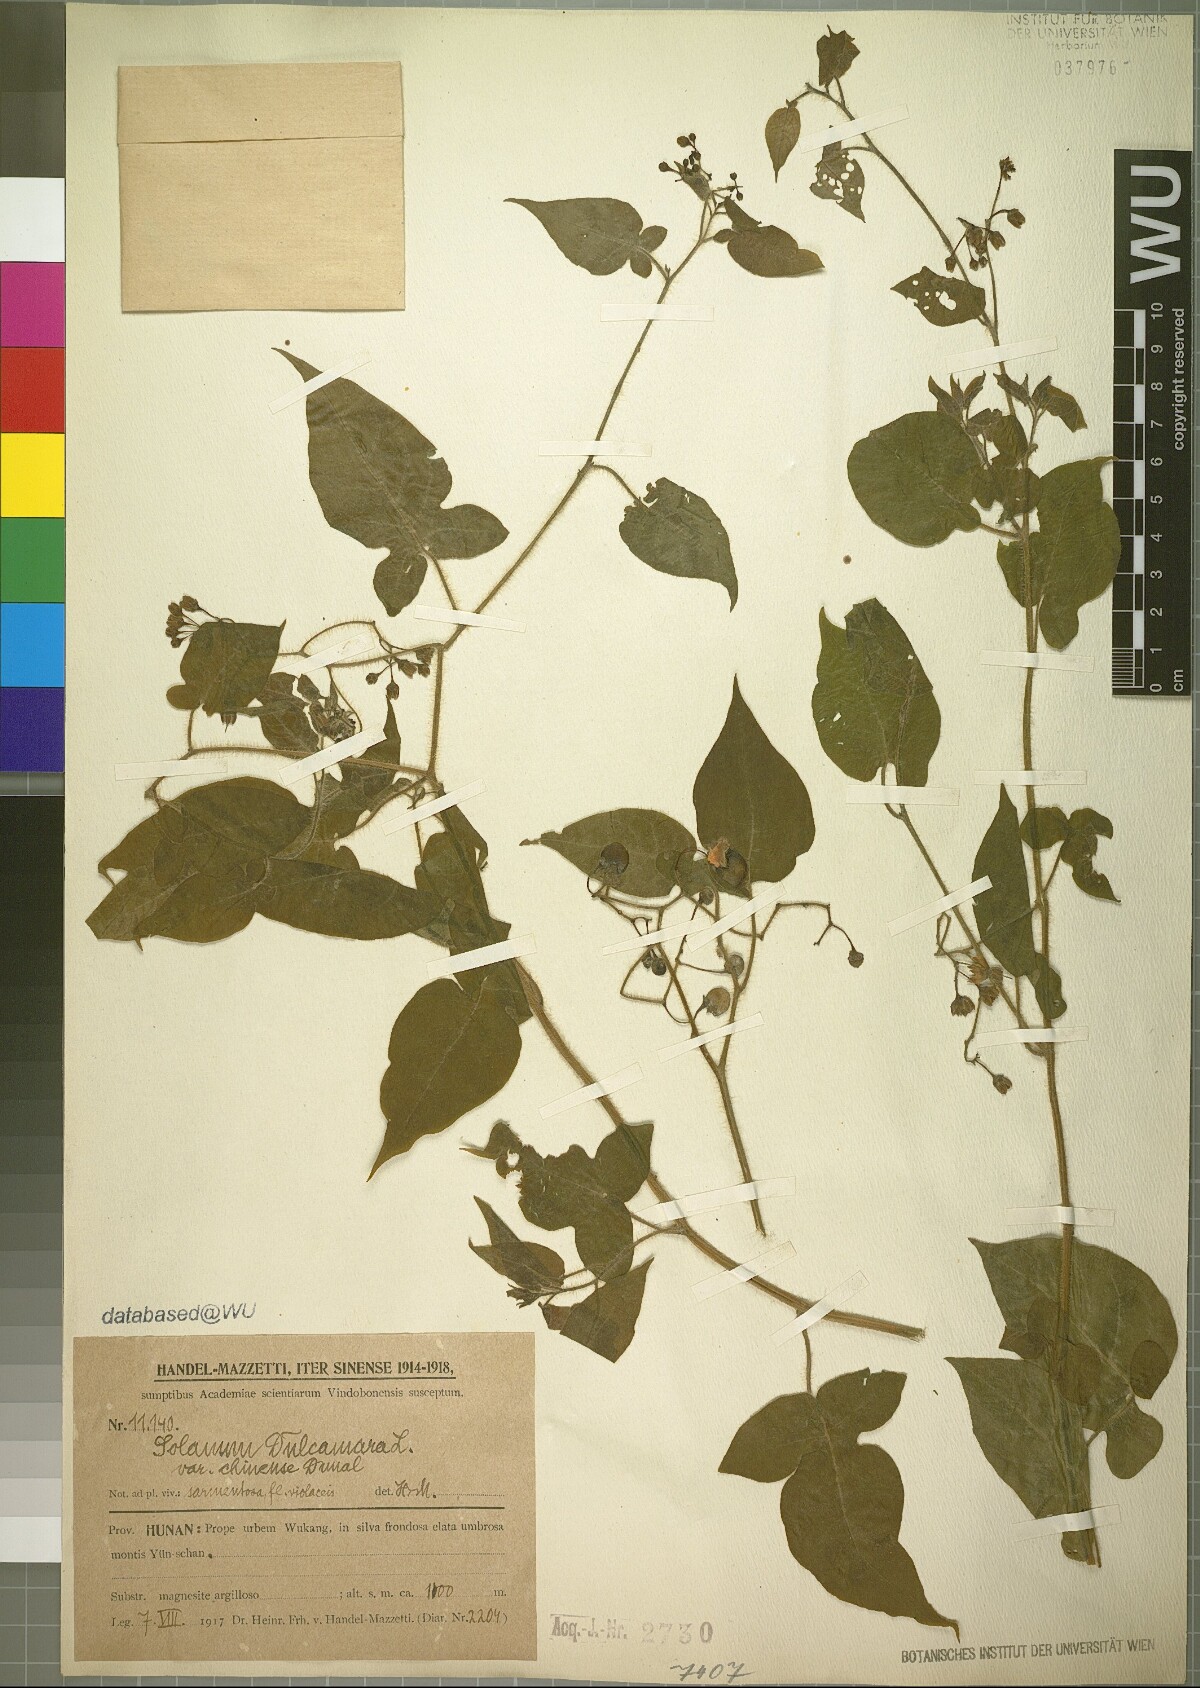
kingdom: Plantae
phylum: Tracheophyta
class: Magnoliopsida
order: Solanales
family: Solanaceae
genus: Solanum
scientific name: Solanum lyratum
